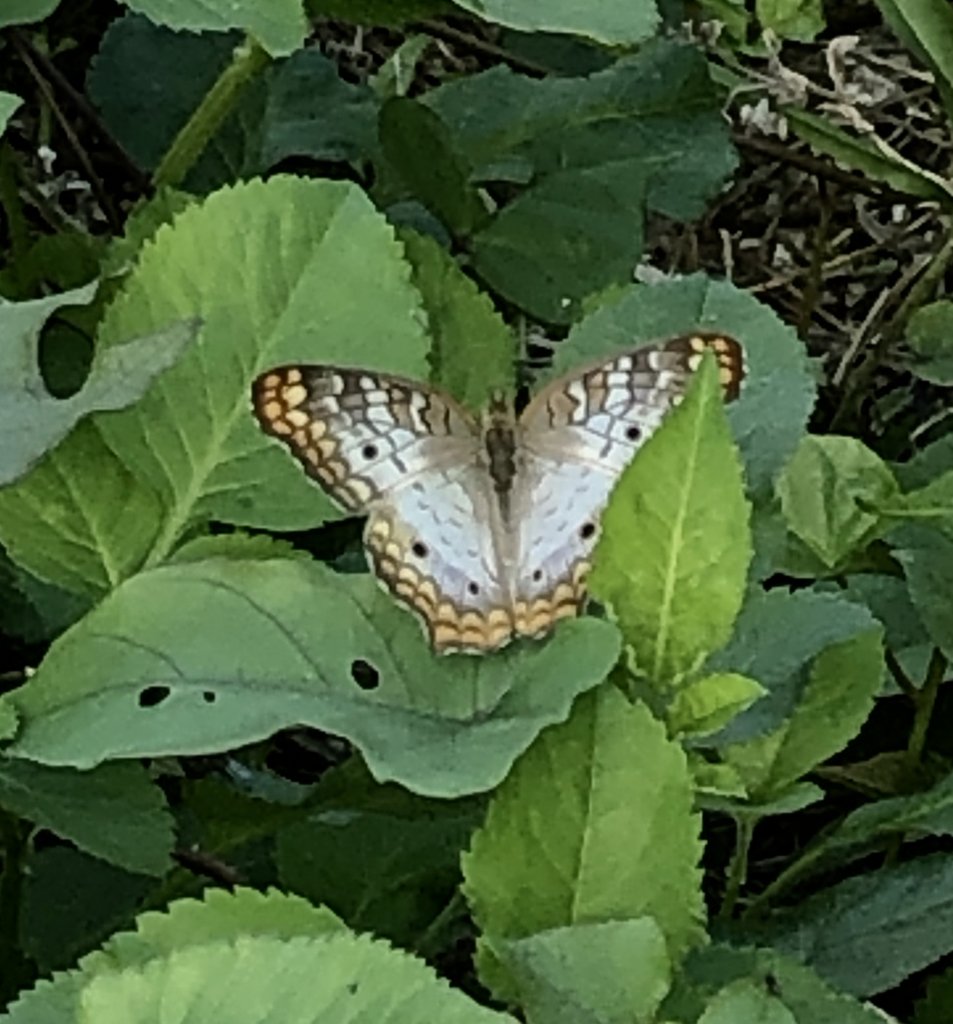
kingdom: Animalia
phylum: Arthropoda
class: Insecta
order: Lepidoptera
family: Nymphalidae
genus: Anartia
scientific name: Anartia jatrophae
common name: White Peacock
